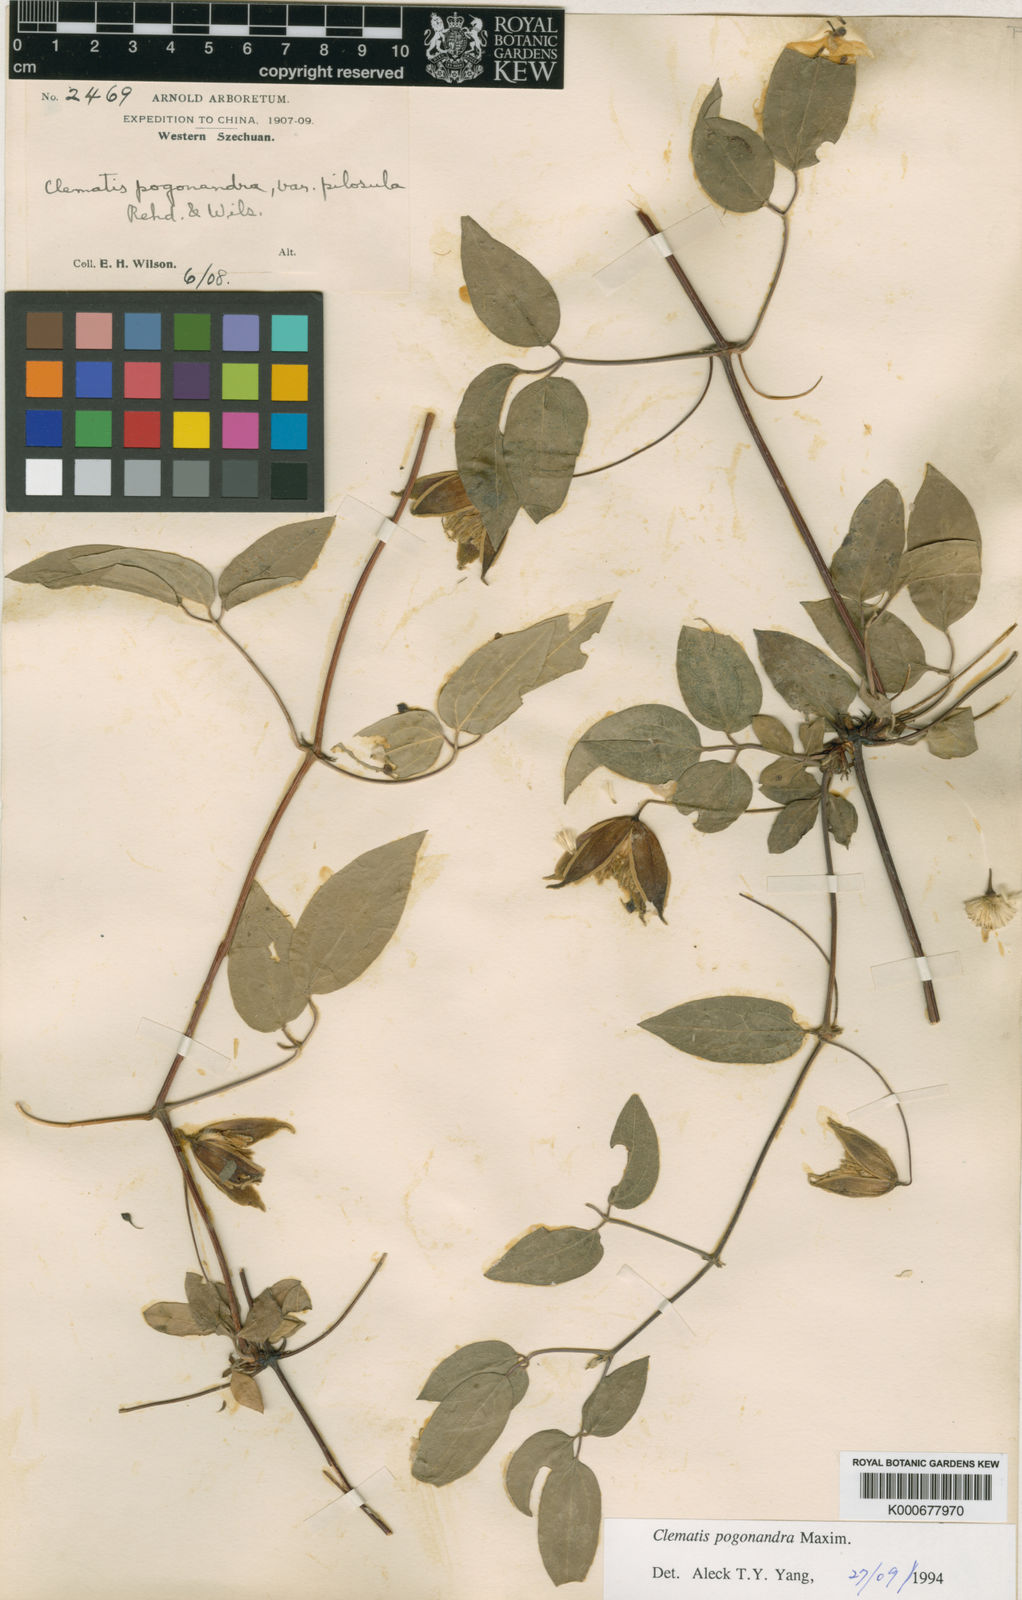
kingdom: Plantae
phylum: Tracheophyta
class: Magnoliopsida
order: Ranunculales
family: Ranunculaceae
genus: Clematis
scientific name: Clematis pogonandra
